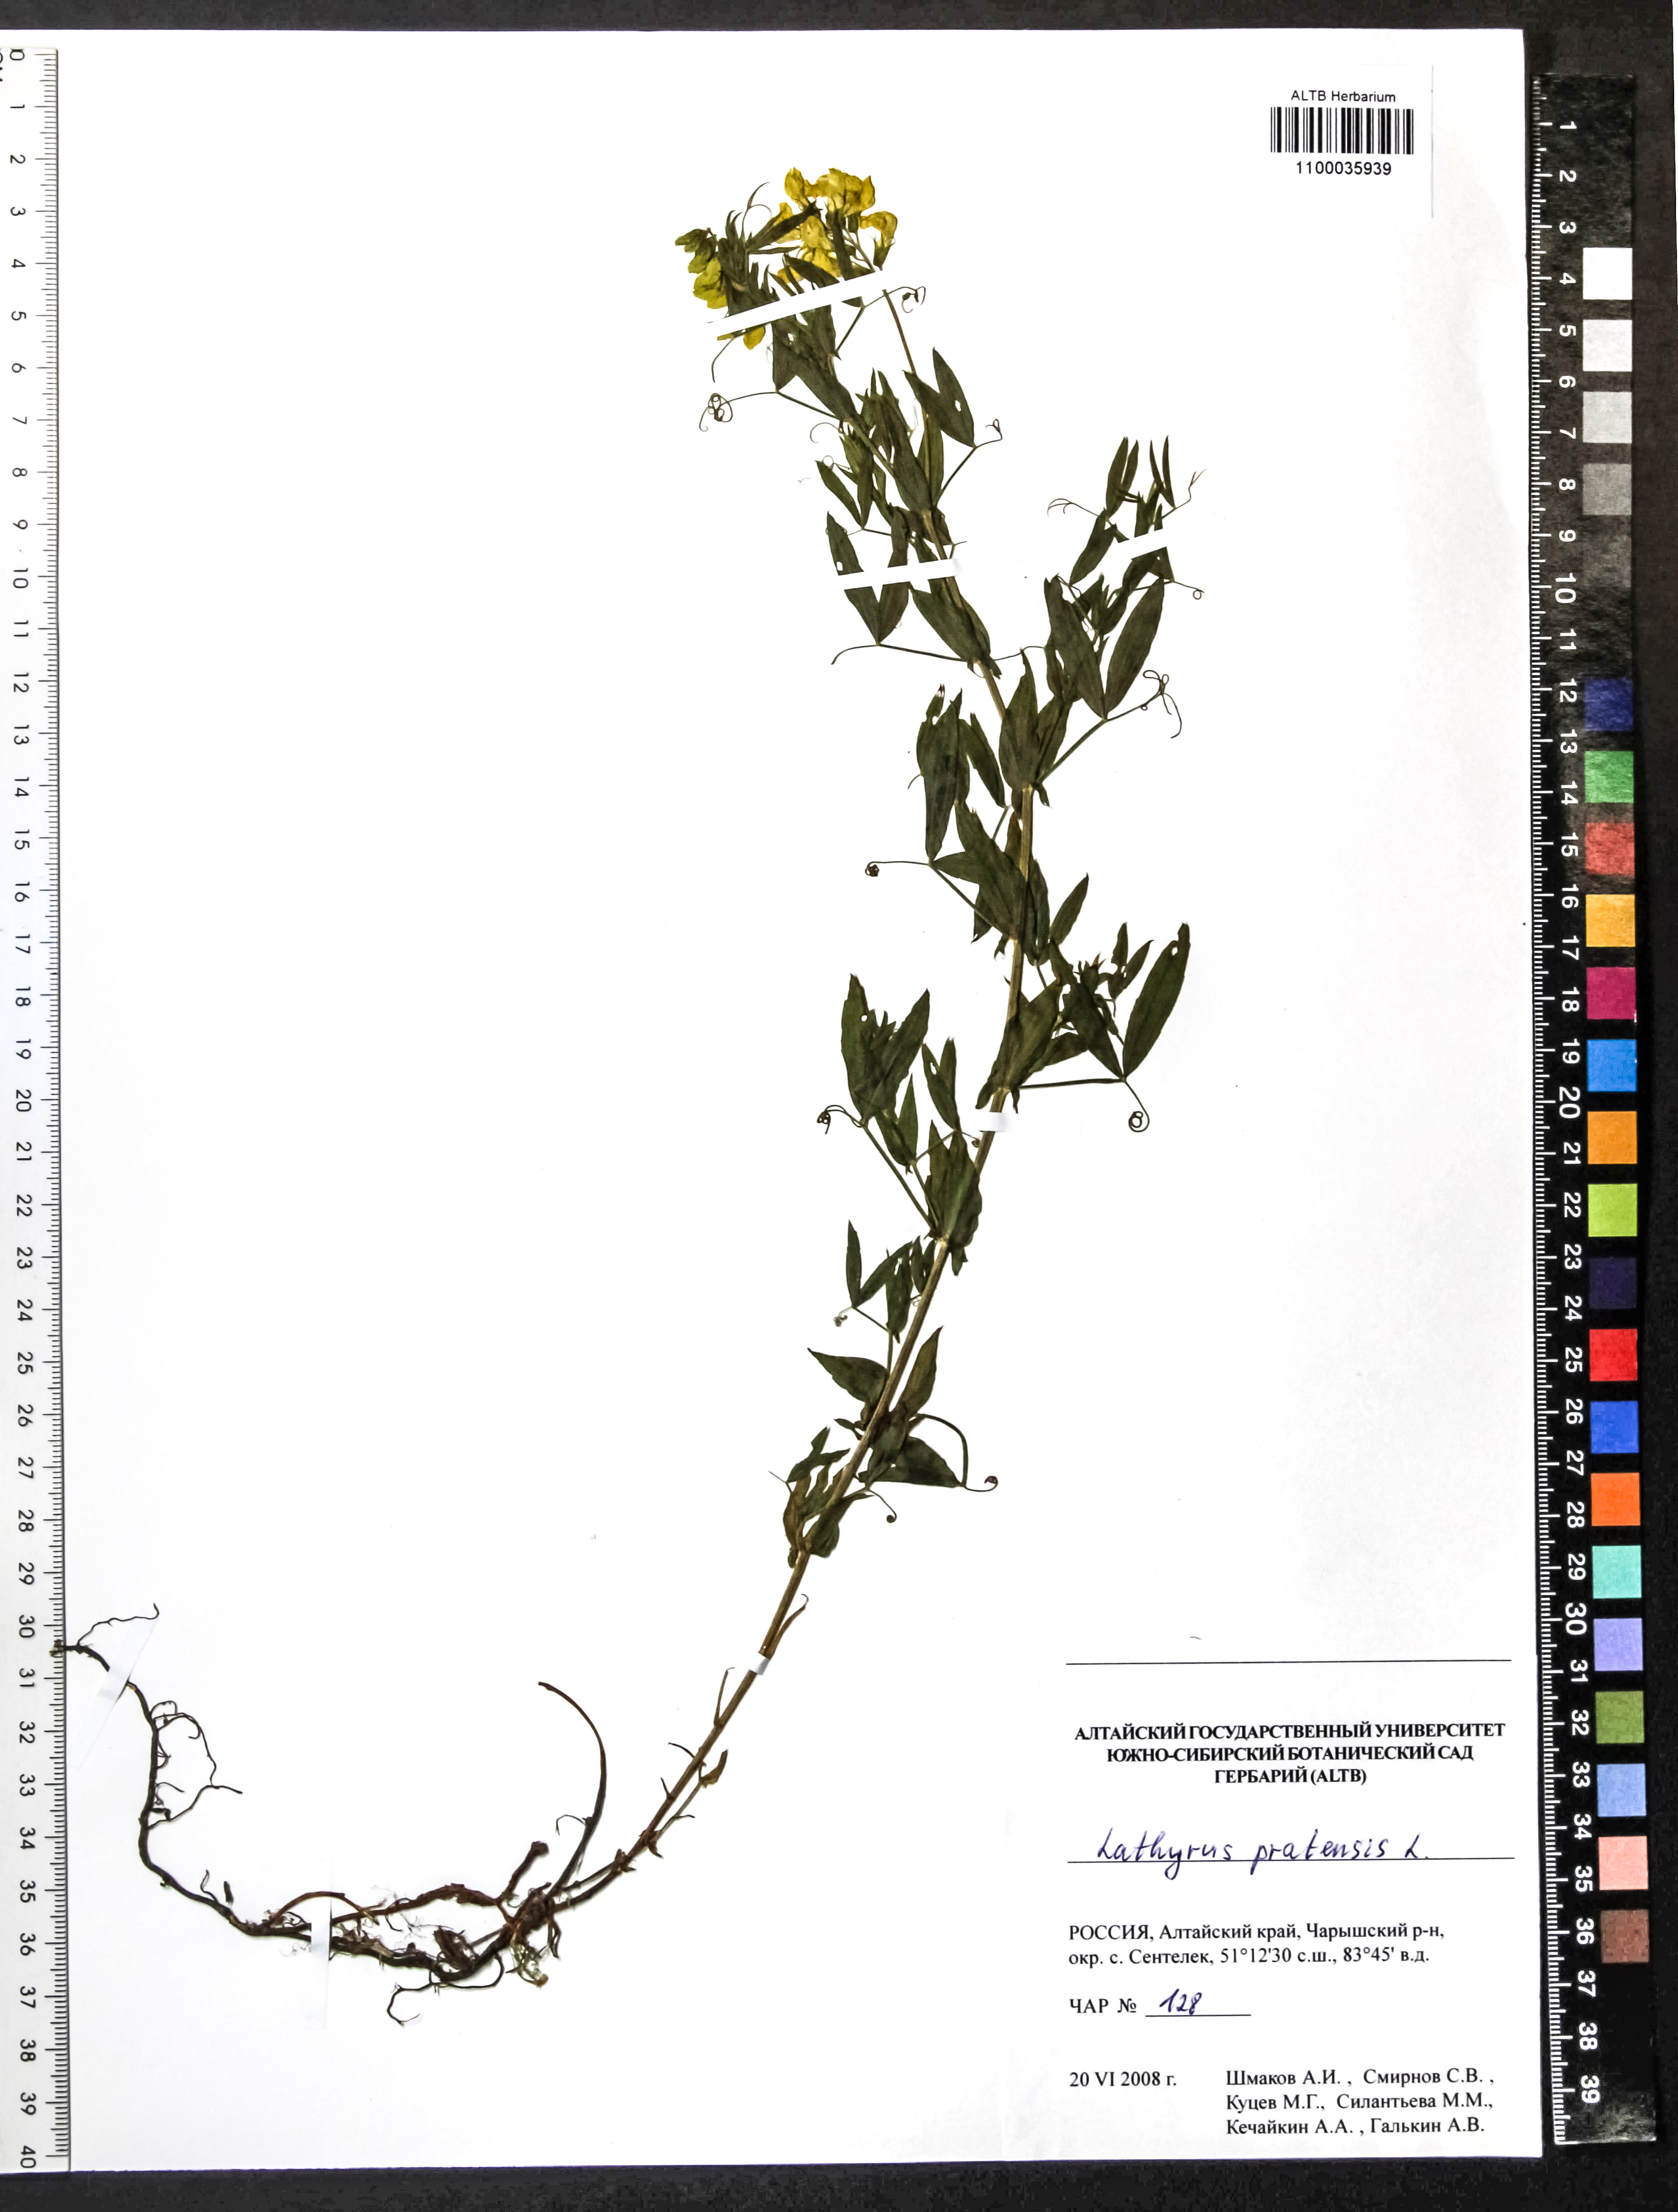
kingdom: Plantae
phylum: Tracheophyta
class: Magnoliopsida
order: Fabales
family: Fabaceae
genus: Lathyrus
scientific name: Lathyrus pratensis
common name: Meadow vetchling
